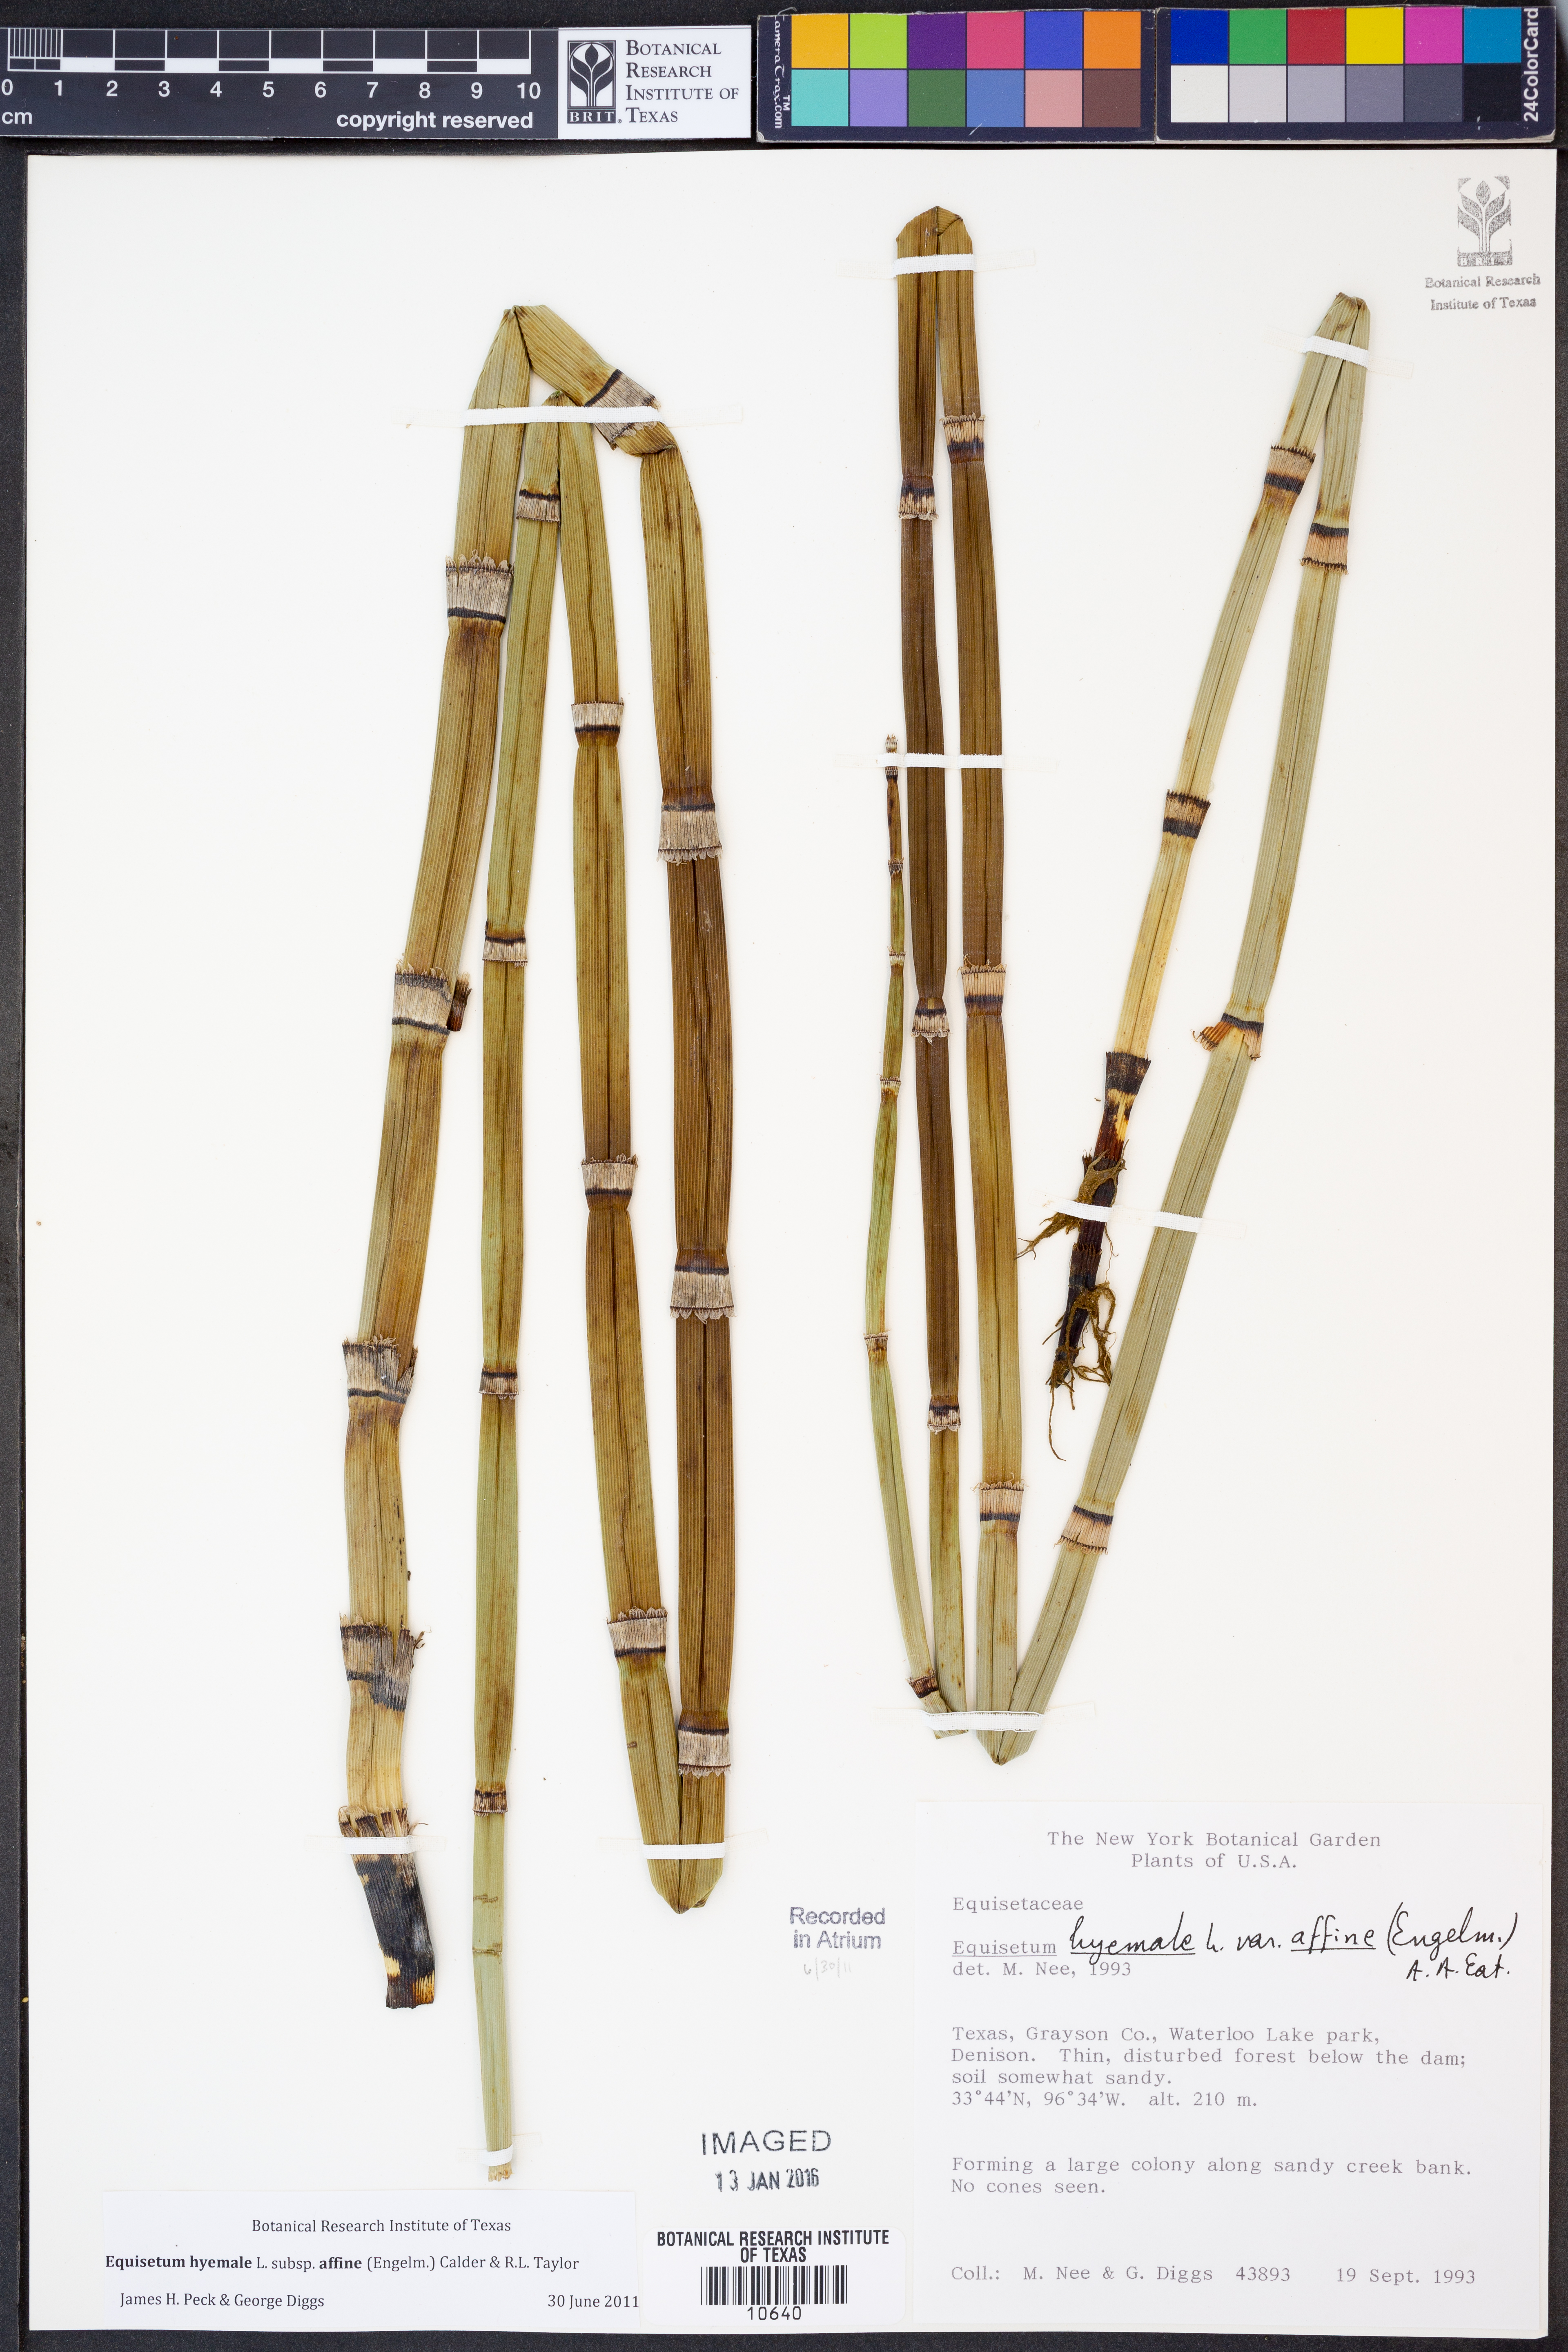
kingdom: Plantae
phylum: Tracheophyta
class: Polypodiopsida
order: Equisetales
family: Equisetaceae
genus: Equisetum
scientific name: Equisetum praealtum
